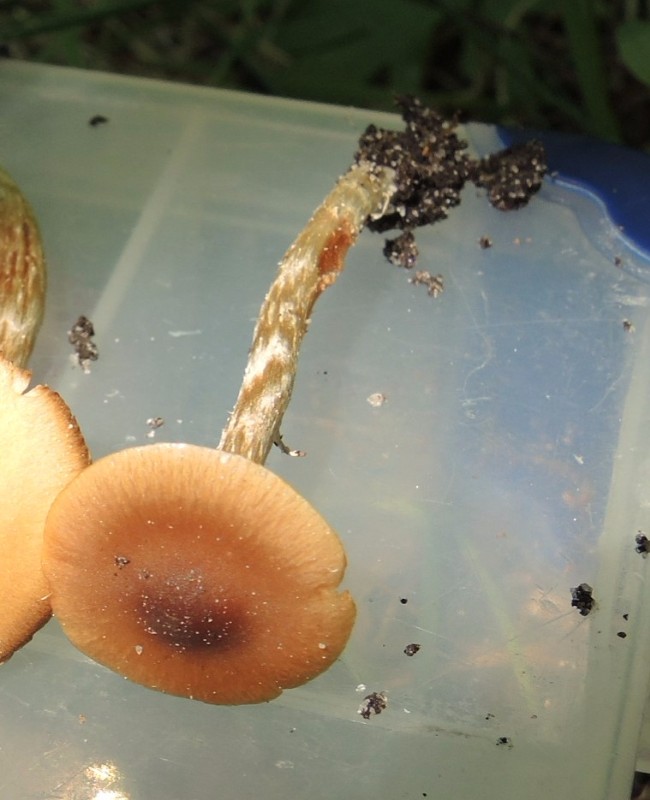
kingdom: Fungi
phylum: Basidiomycota
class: Agaricomycetes
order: Agaricales
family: Hymenogastraceae
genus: Naucoria
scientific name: Naucoria bohemica
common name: birke-knaphat
